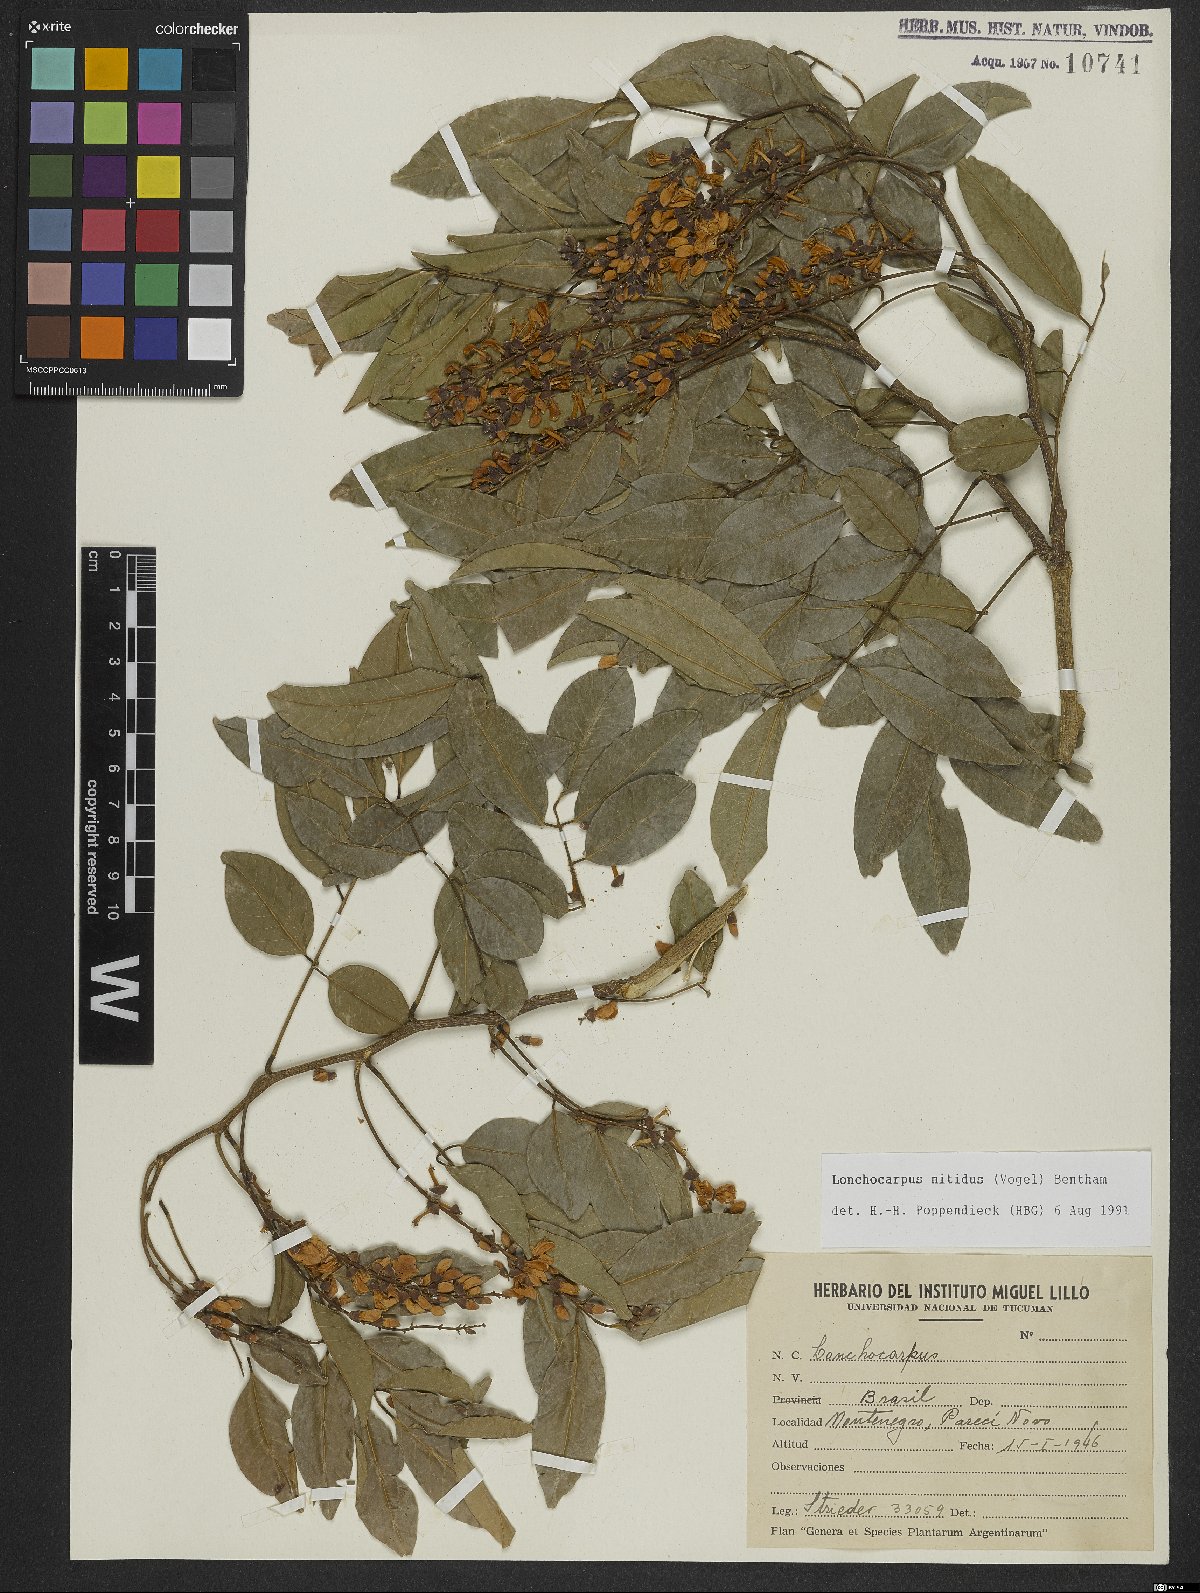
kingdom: Plantae
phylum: Tracheophyta
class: Magnoliopsida
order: Fabales
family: Fabaceae
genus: Lonchocarpus
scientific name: Lonchocarpus nitidus
